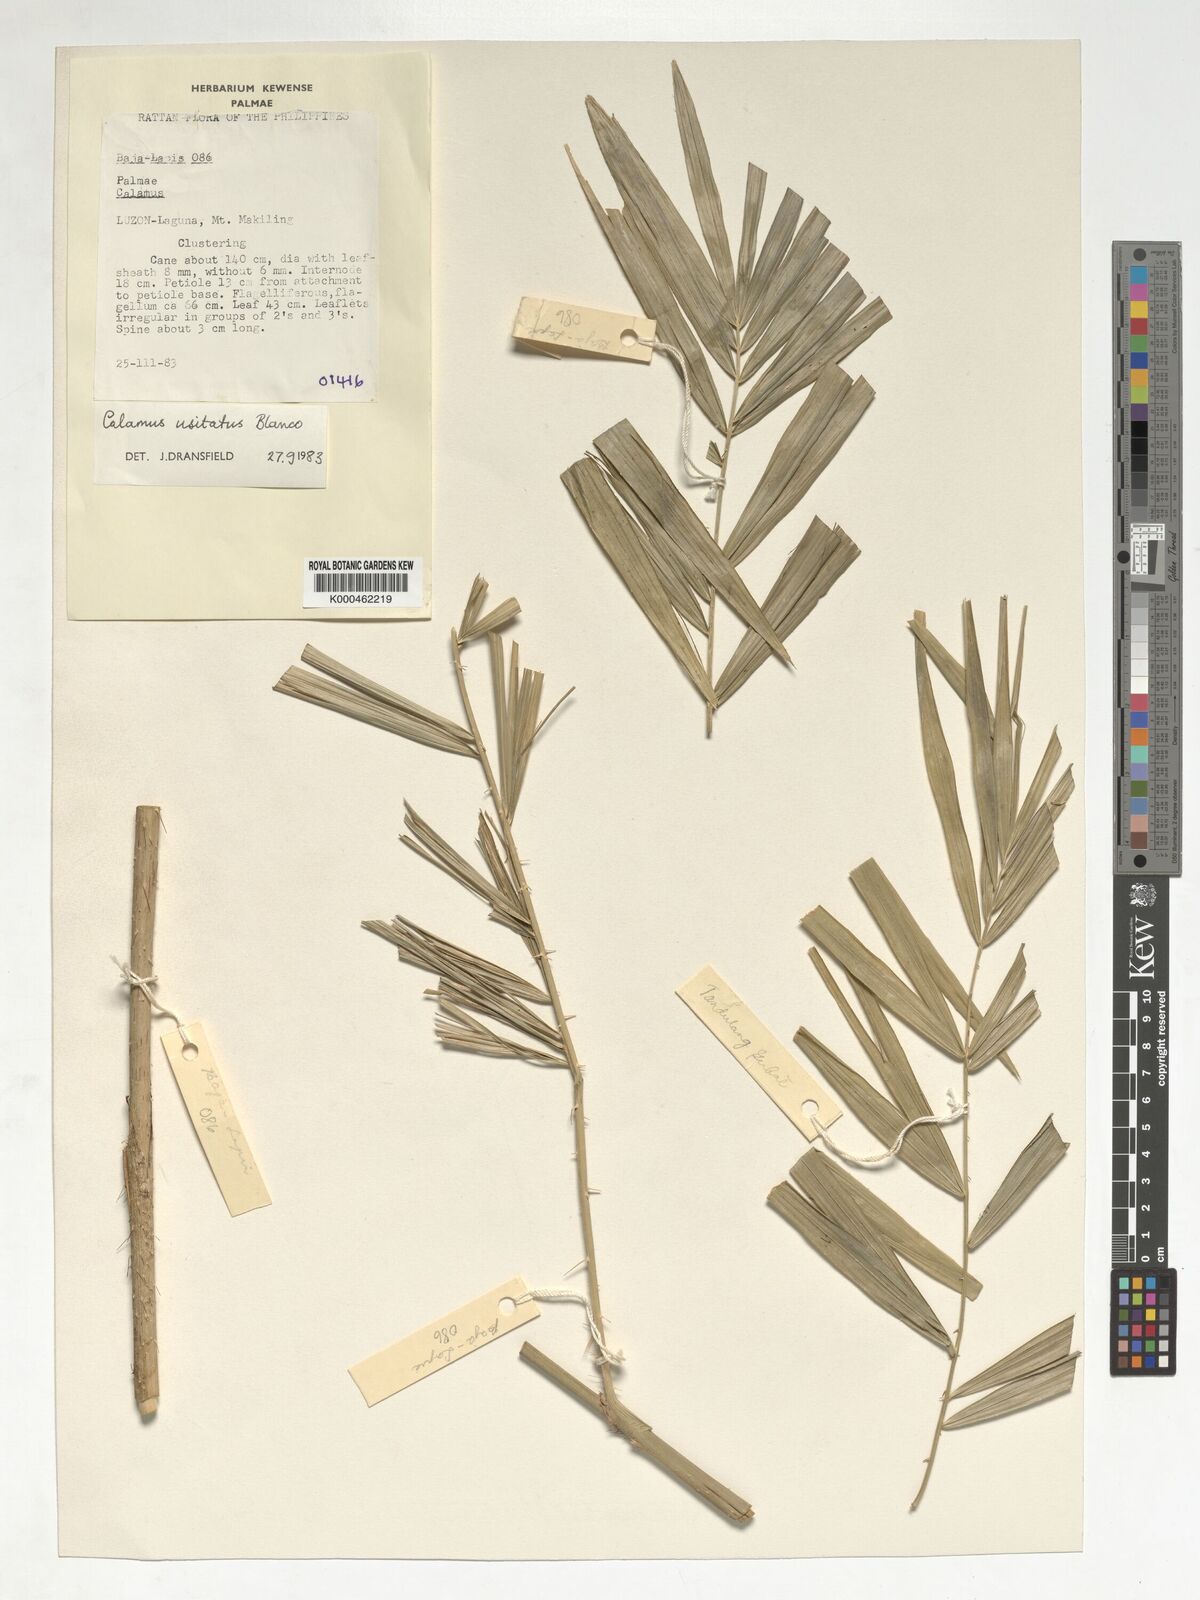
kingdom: Plantae
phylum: Tracheophyta
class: Liliopsida
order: Arecales
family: Arecaceae
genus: Calamus
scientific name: Calamus usitatus
